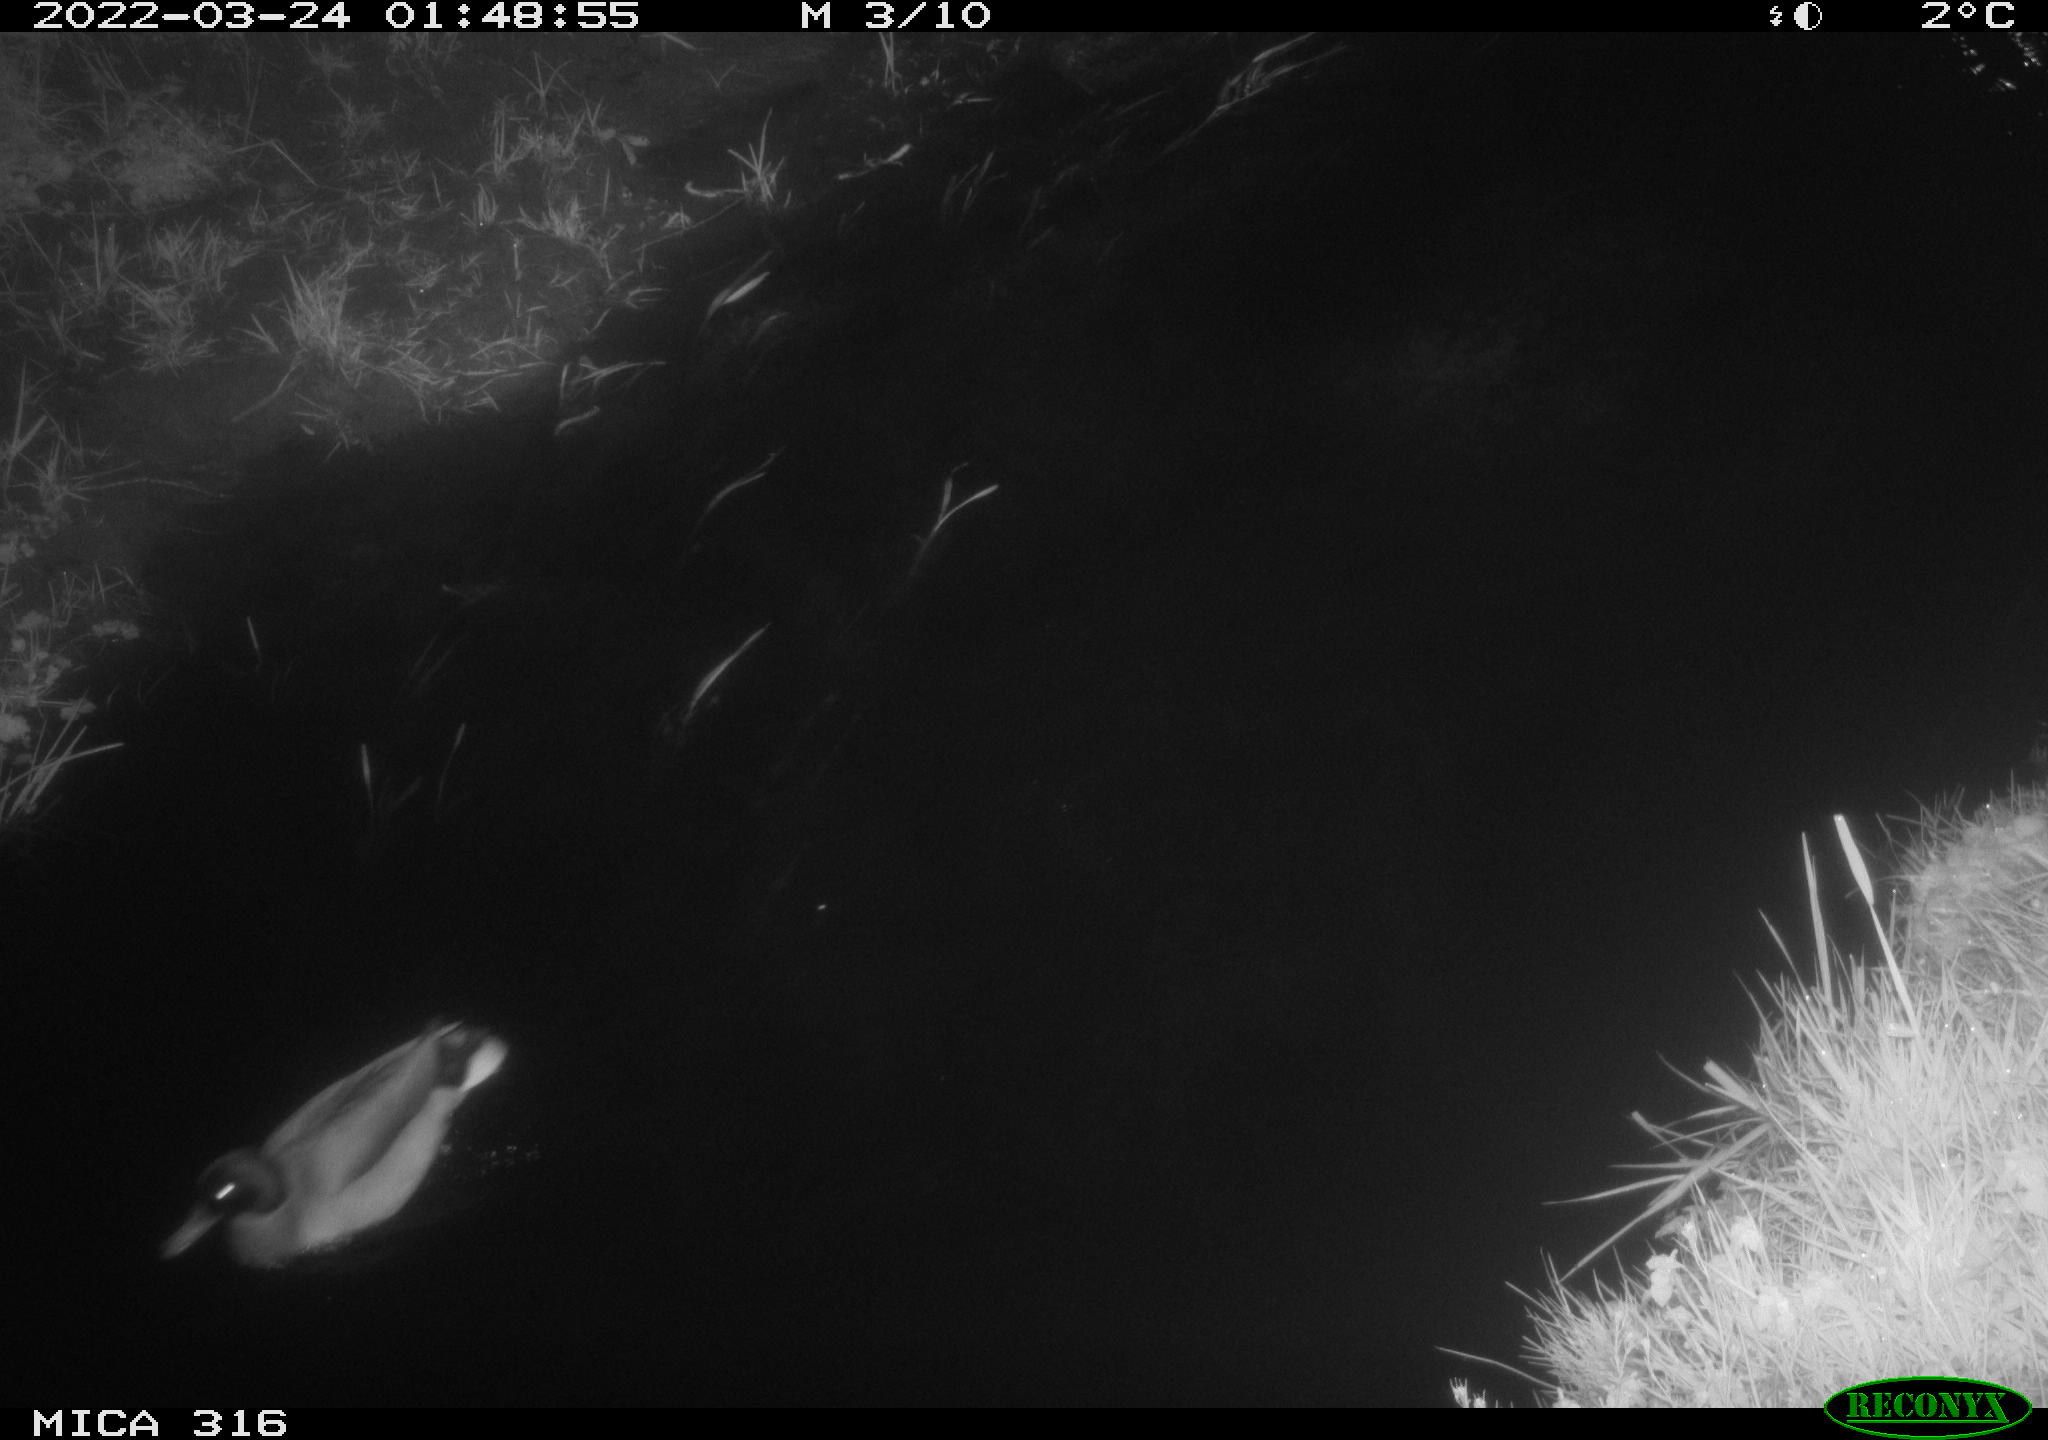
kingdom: Animalia
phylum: Chordata
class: Aves
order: Anseriformes
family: Anatidae
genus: Anas
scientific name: Anas platyrhynchos
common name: Mallard
